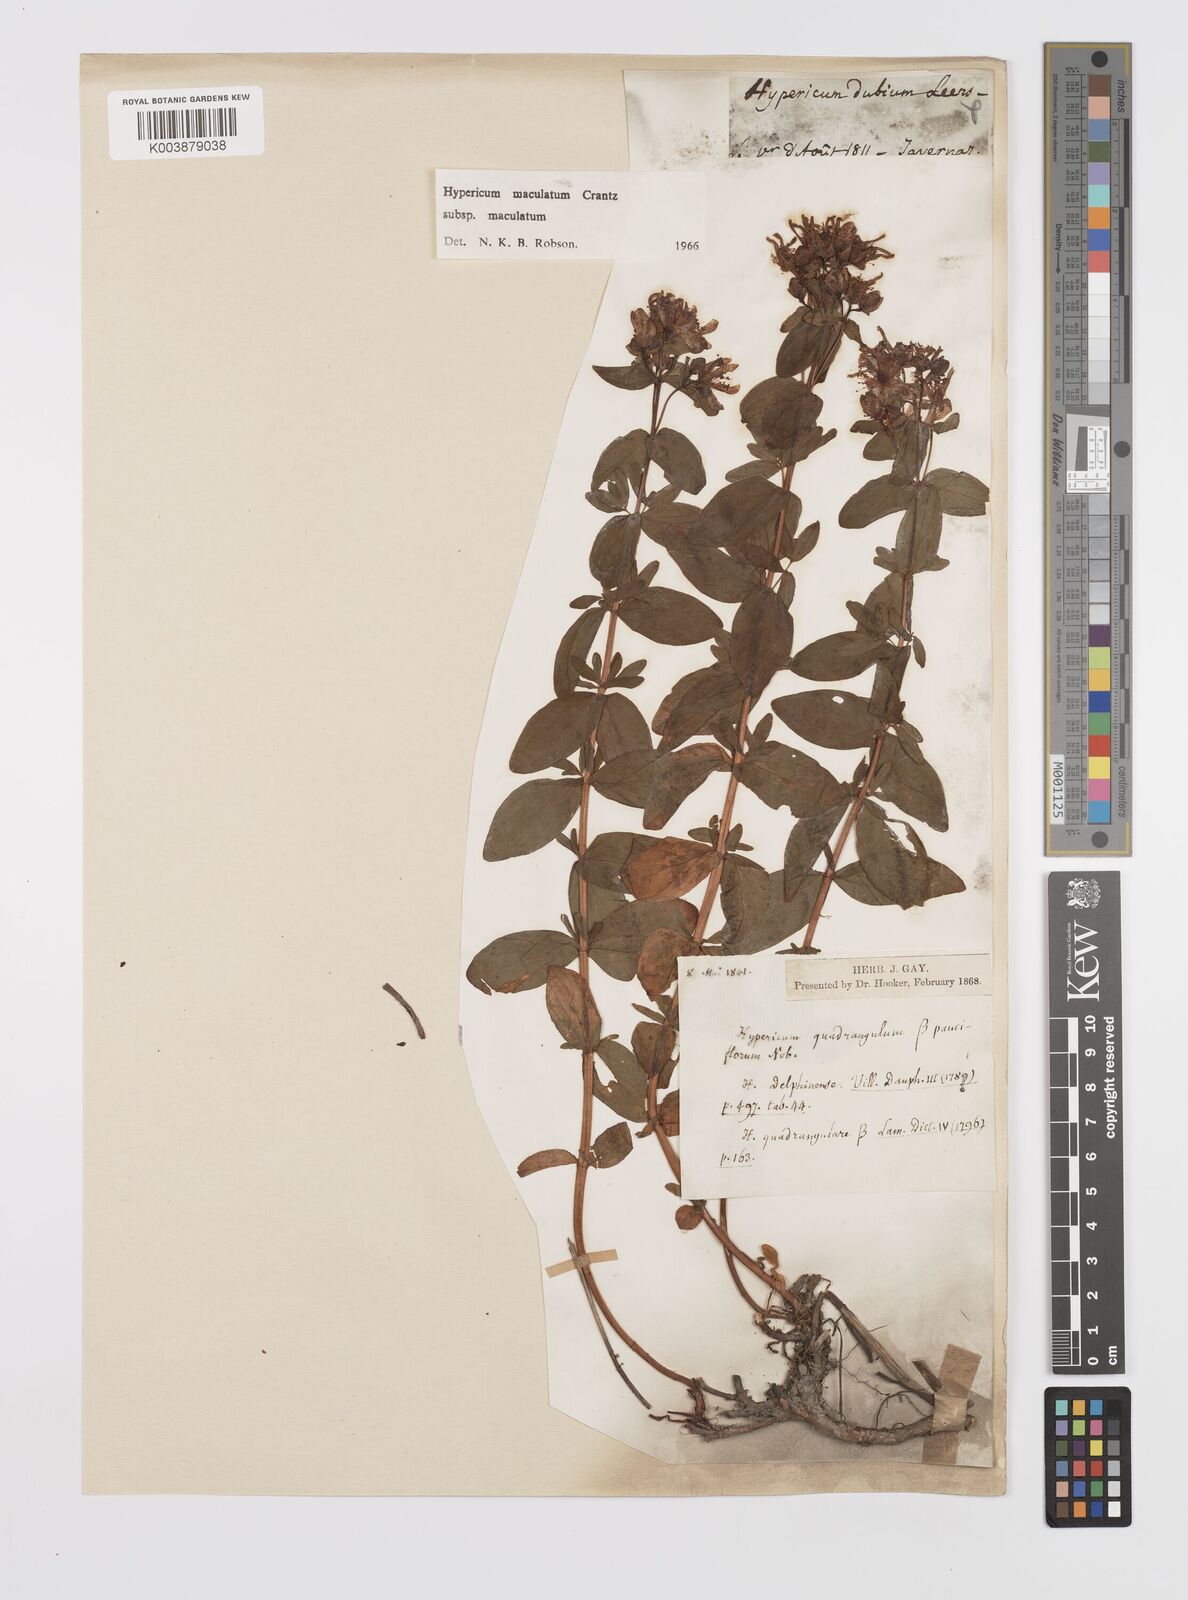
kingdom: Plantae
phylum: Tracheophyta
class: Magnoliopsida
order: Malpighiales
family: Hypericaceae
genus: Hypericum
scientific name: Hypericum maculatum
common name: Imperforate st. john's-wort
